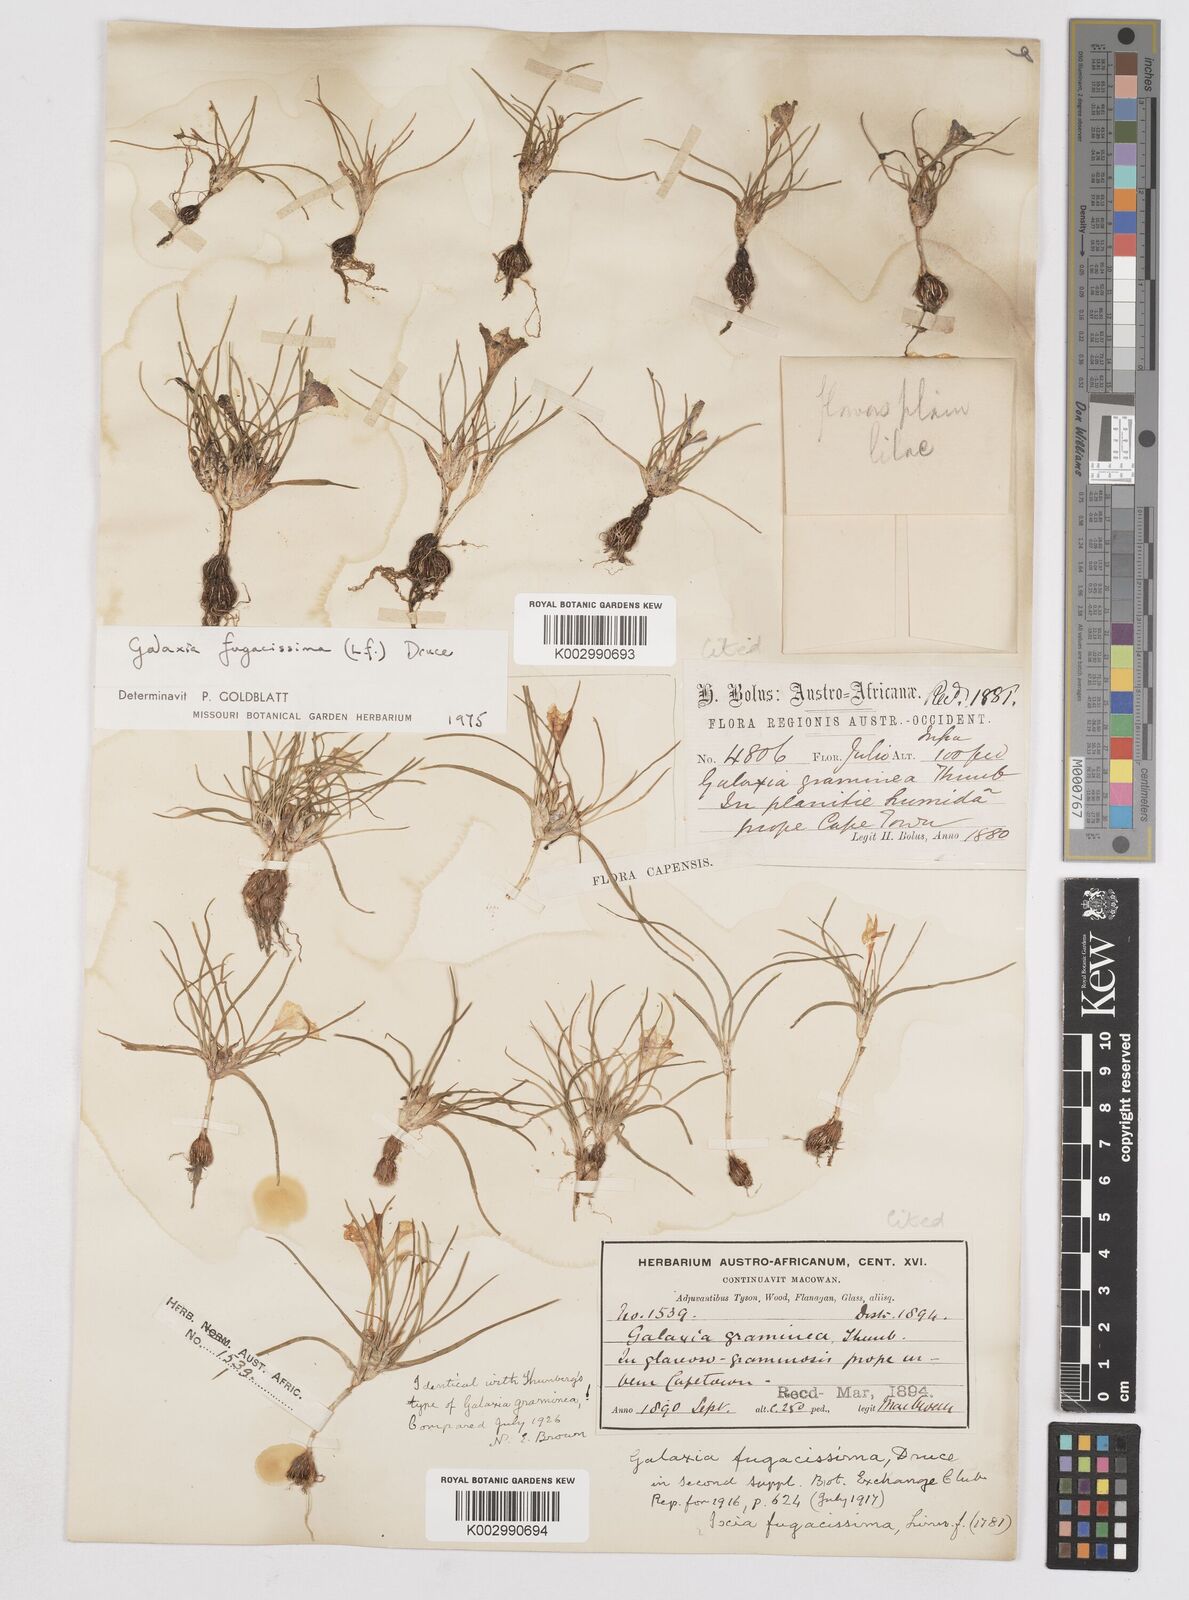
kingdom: Plantae
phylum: Tracheophyta
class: Liliopsida
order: Asparagales
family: Iridaceae
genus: Moraea
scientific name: Moraea fugacissima
